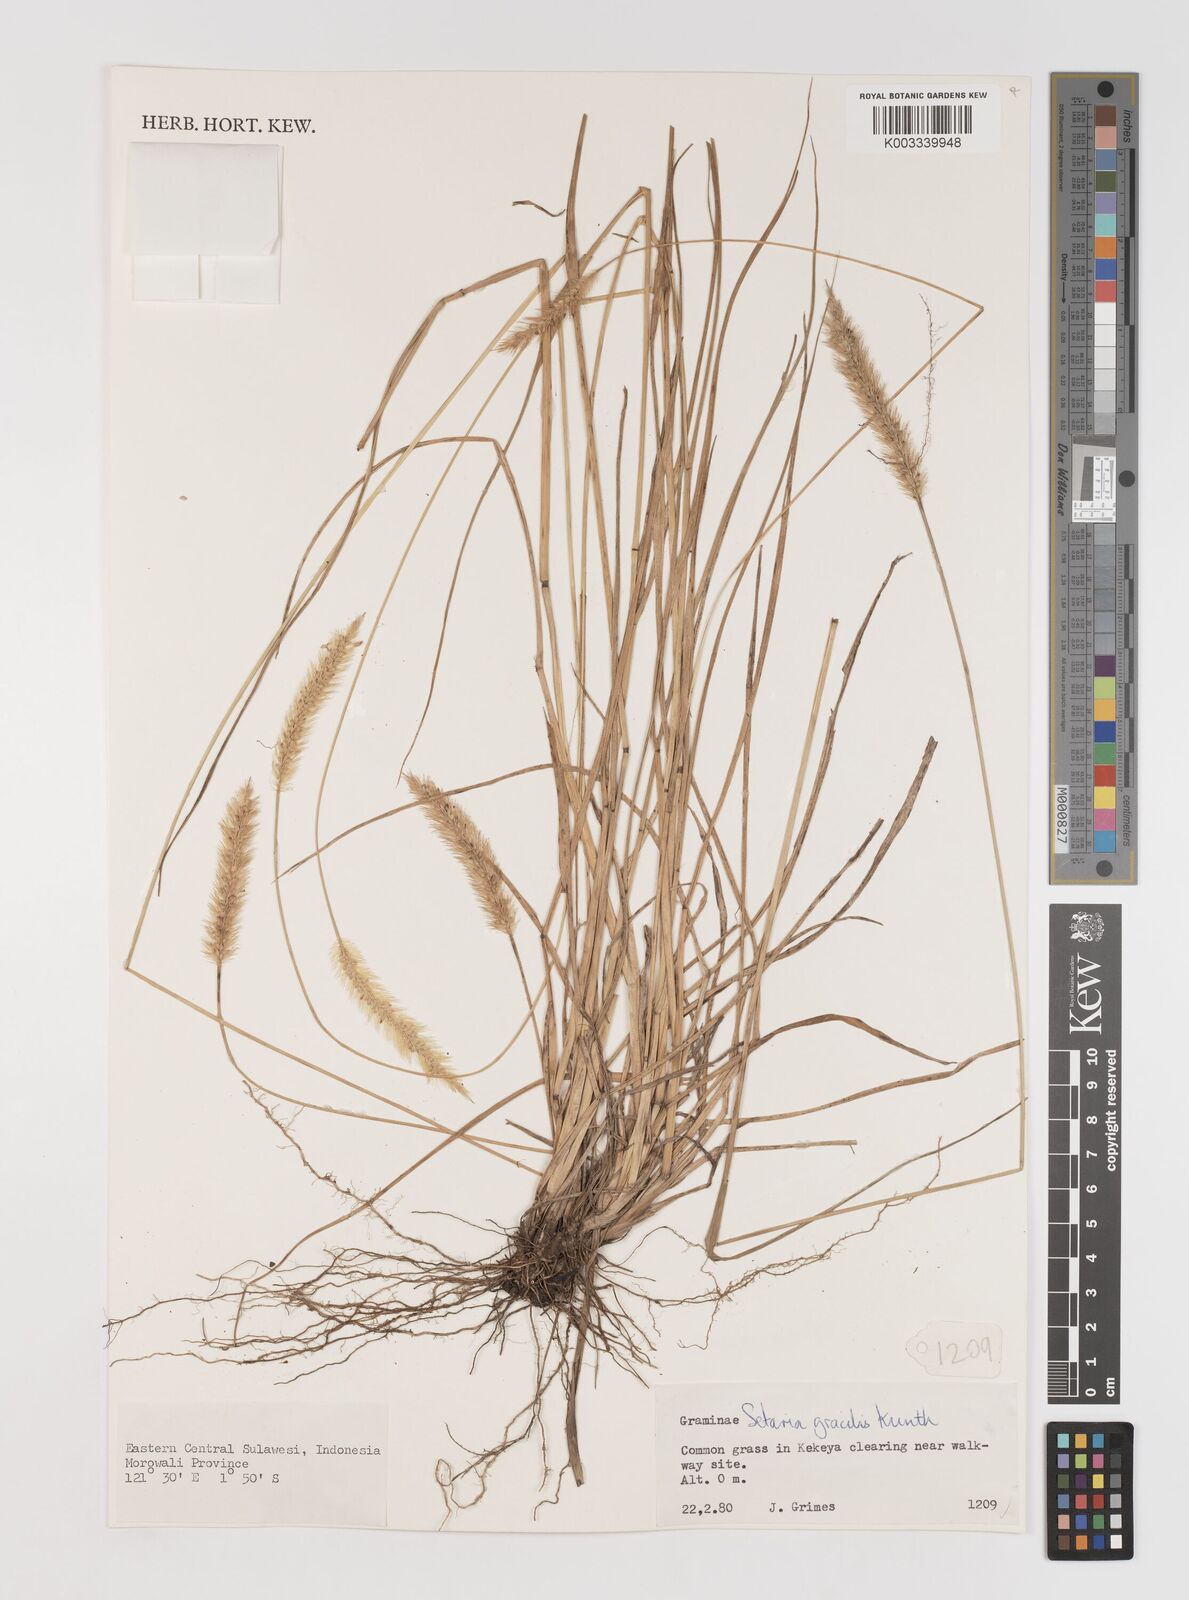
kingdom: Plantae
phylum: Tracheophyta
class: Liliopsida
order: Poales
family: Poaceae
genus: Setaria
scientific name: Setaria parviflora
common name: Knotroot bristle-grass
